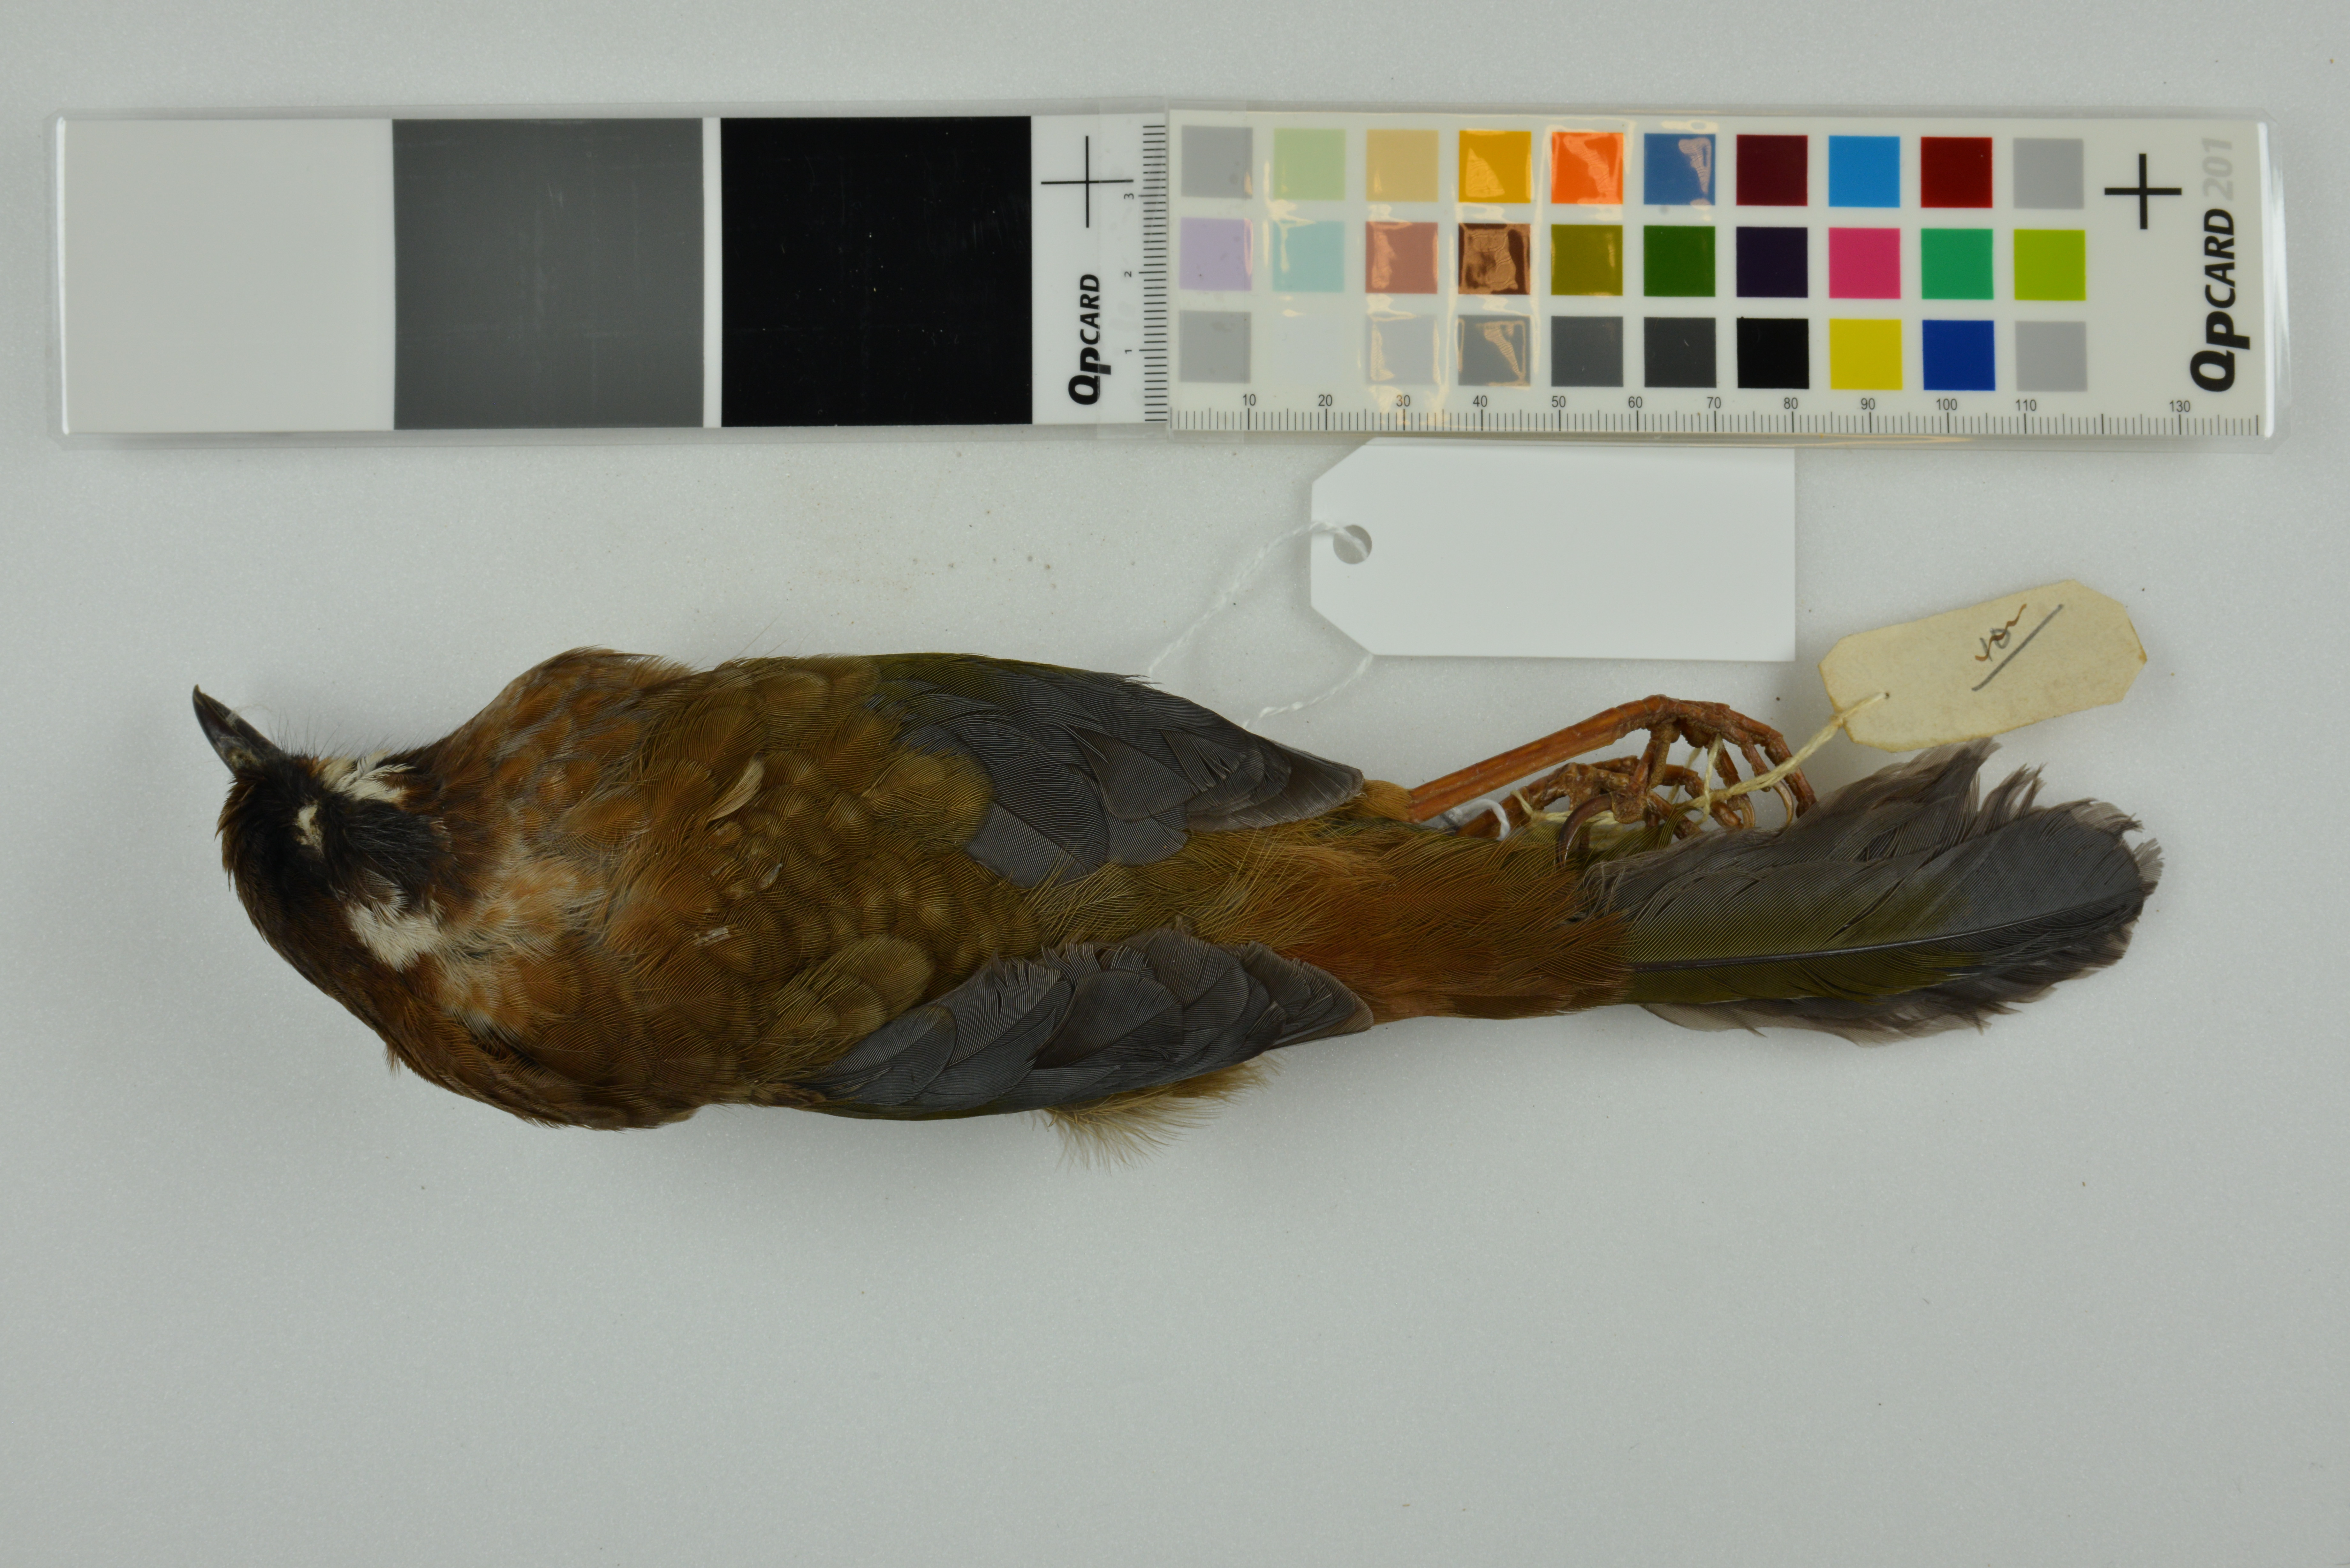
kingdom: Animalia
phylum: Chordata
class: Aves
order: Passeriformes
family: Leiothrichidae
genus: Trochalopteron
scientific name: Trochalopteron affine
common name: Black-faced laughingthrush
